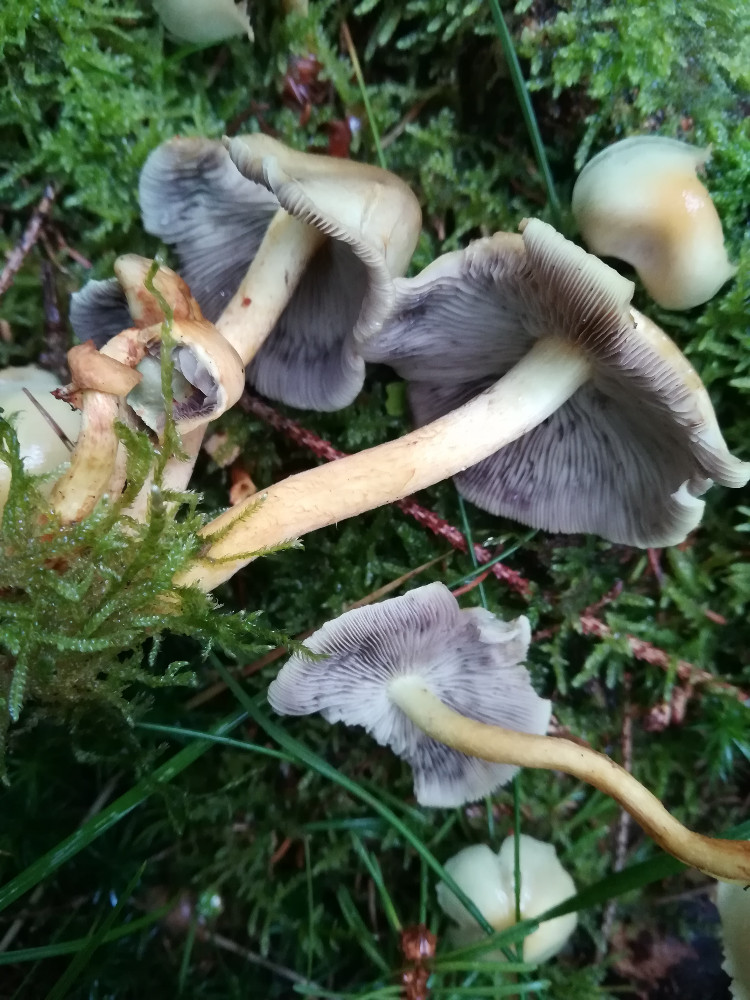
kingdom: Fungi
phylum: Basidiomycota
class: Agaricomycetes
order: Agaricales
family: Strophariaceae
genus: Hypholoma
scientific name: Hypholoma capnoides
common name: gran-svovlhat
